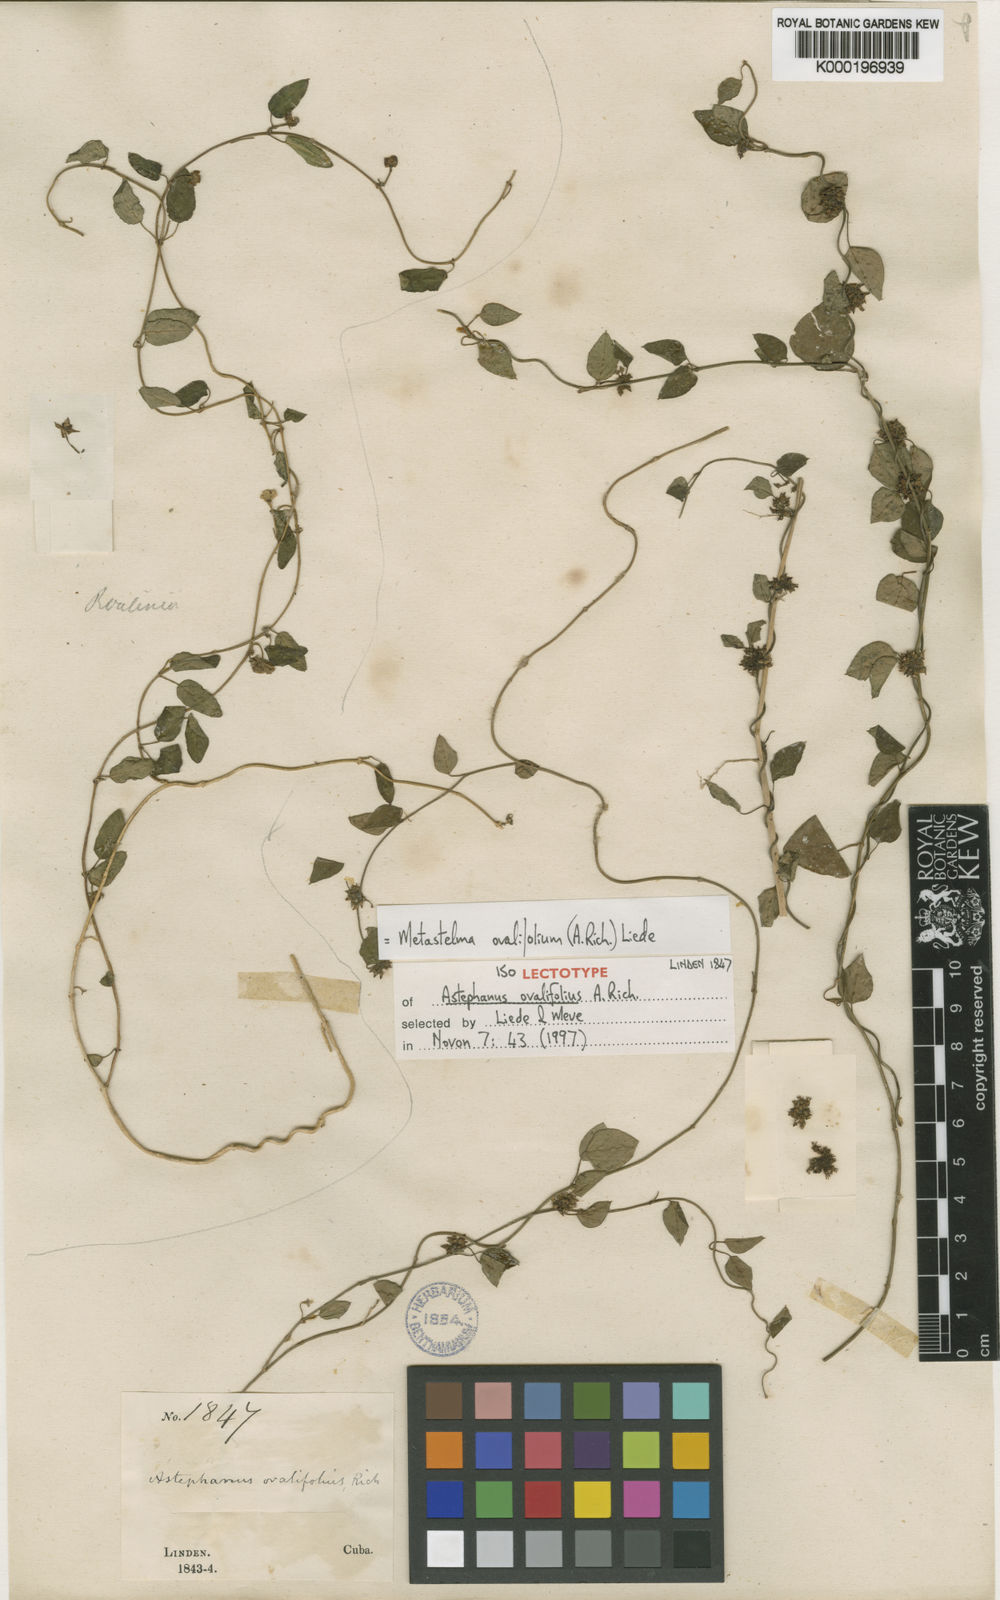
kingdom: Plantae
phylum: Tracheophyta
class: Magnoliopsida
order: Gentianales
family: Apocynaceae
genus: Tylodontia
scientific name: Tylodontia urceolata
